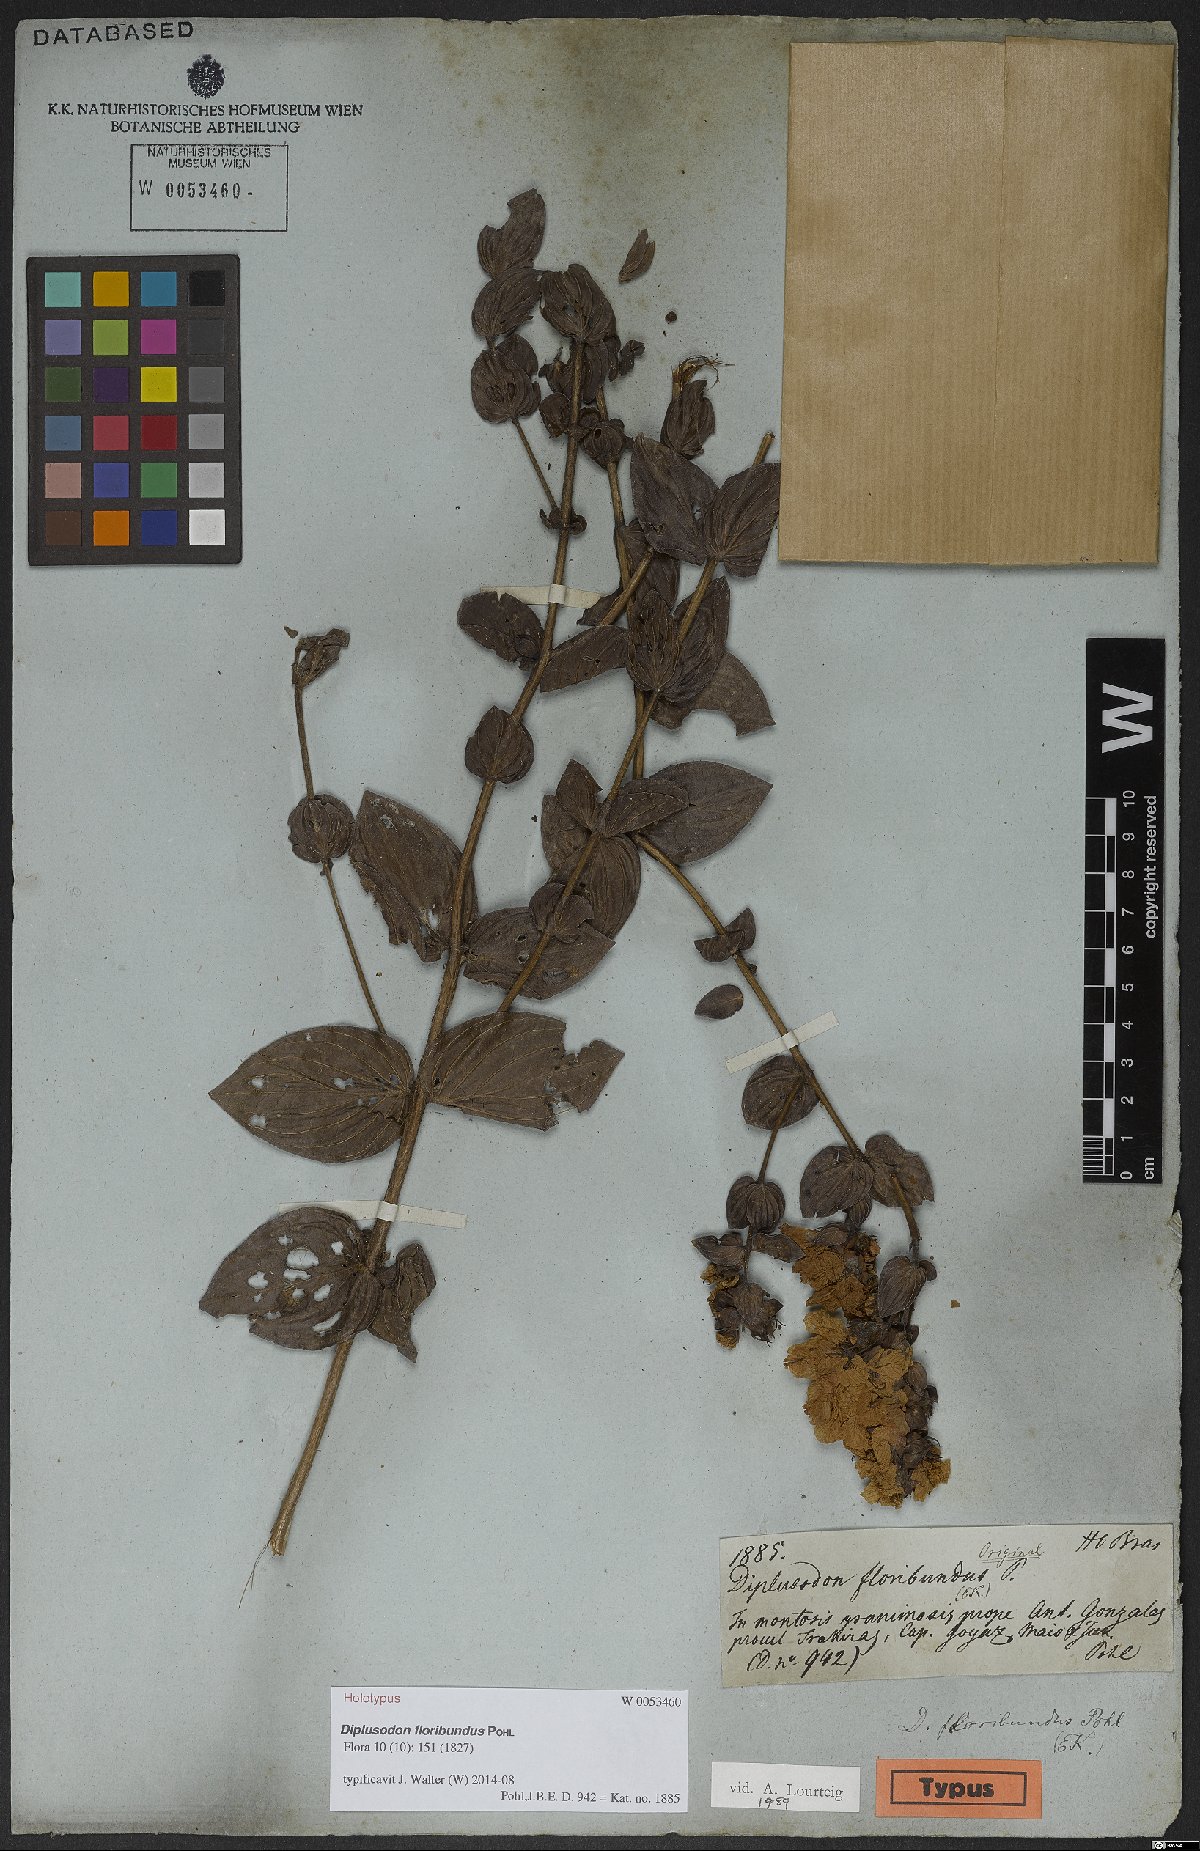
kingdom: Plantae
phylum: Tracheophyta
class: Magnoliopsida
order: Myrtales
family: Lythraceae
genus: Diplusodon
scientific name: Diplusodon floribundus
